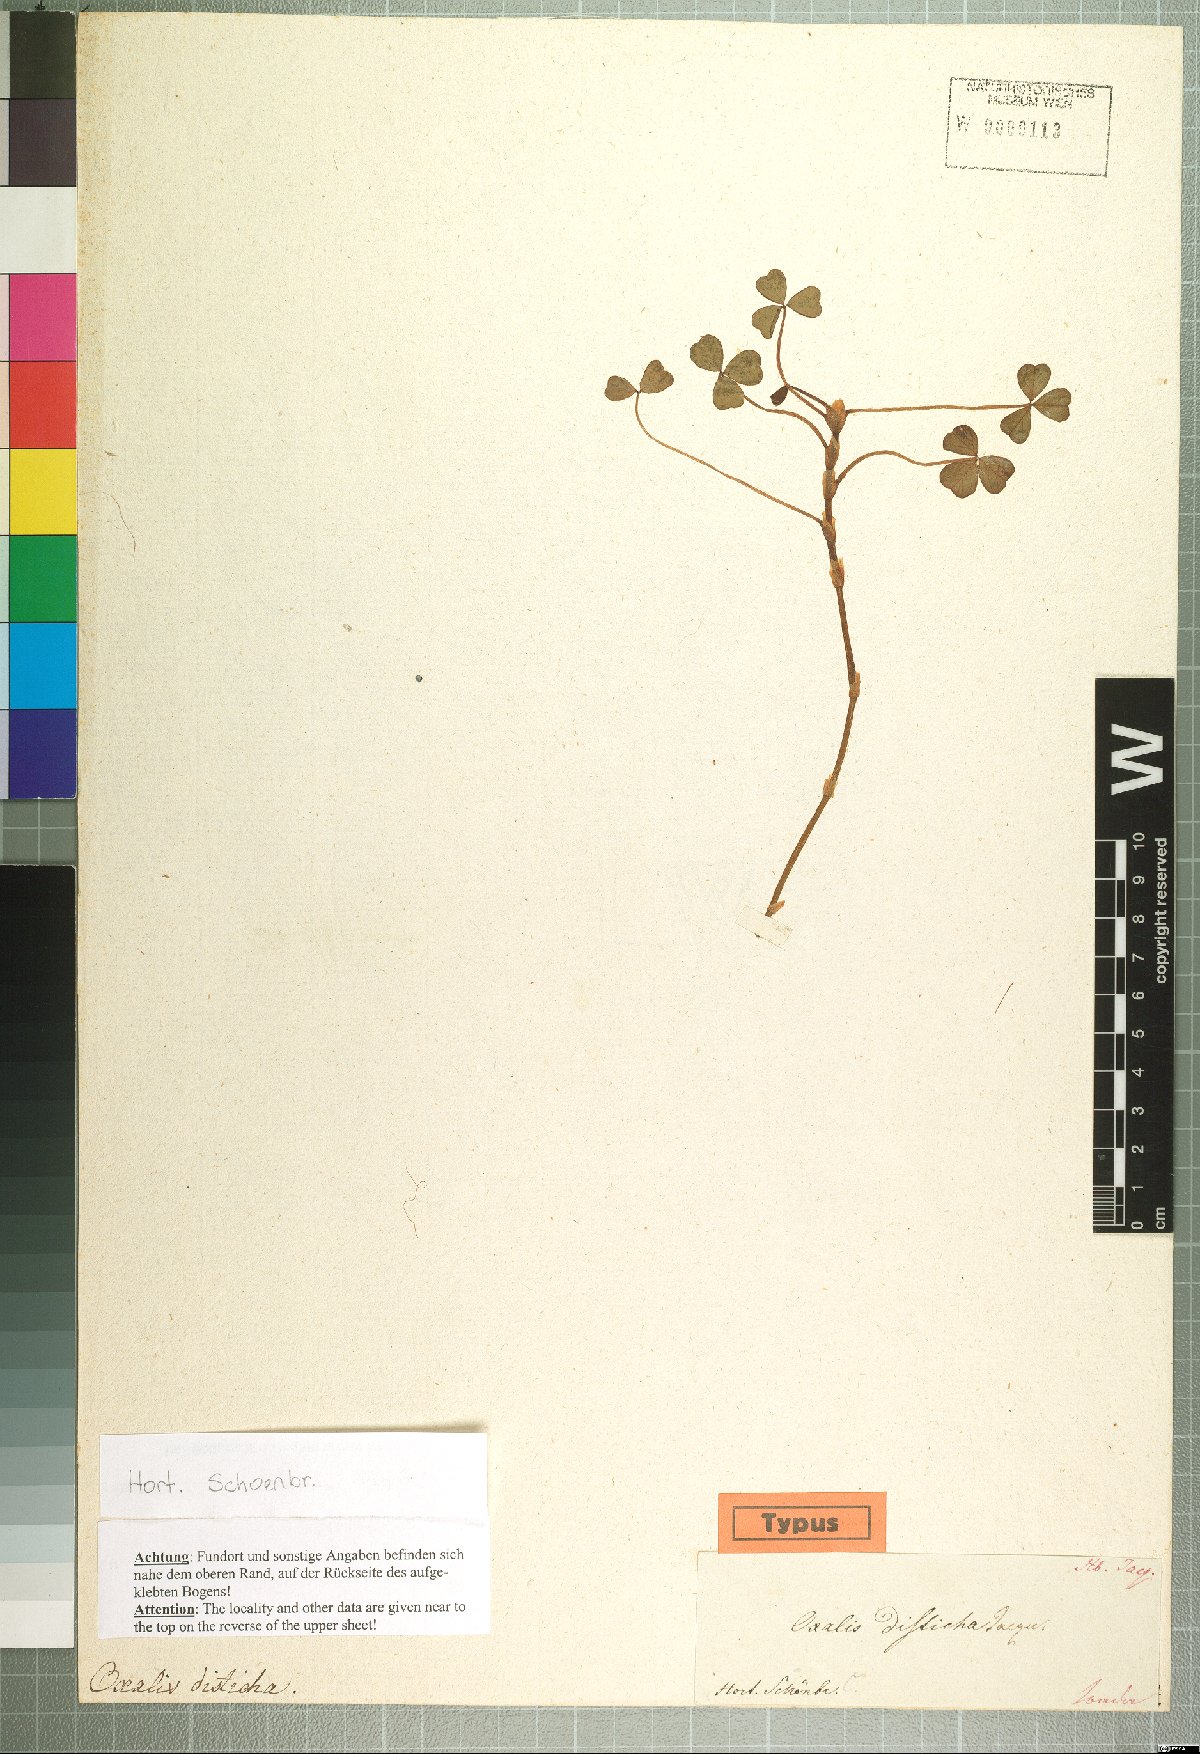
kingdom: Plantae
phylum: Tracheophyta
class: Magnoliopsida
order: Oxalidales
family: Oxalidaceae
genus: Oxalis
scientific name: Oxalis disticha
